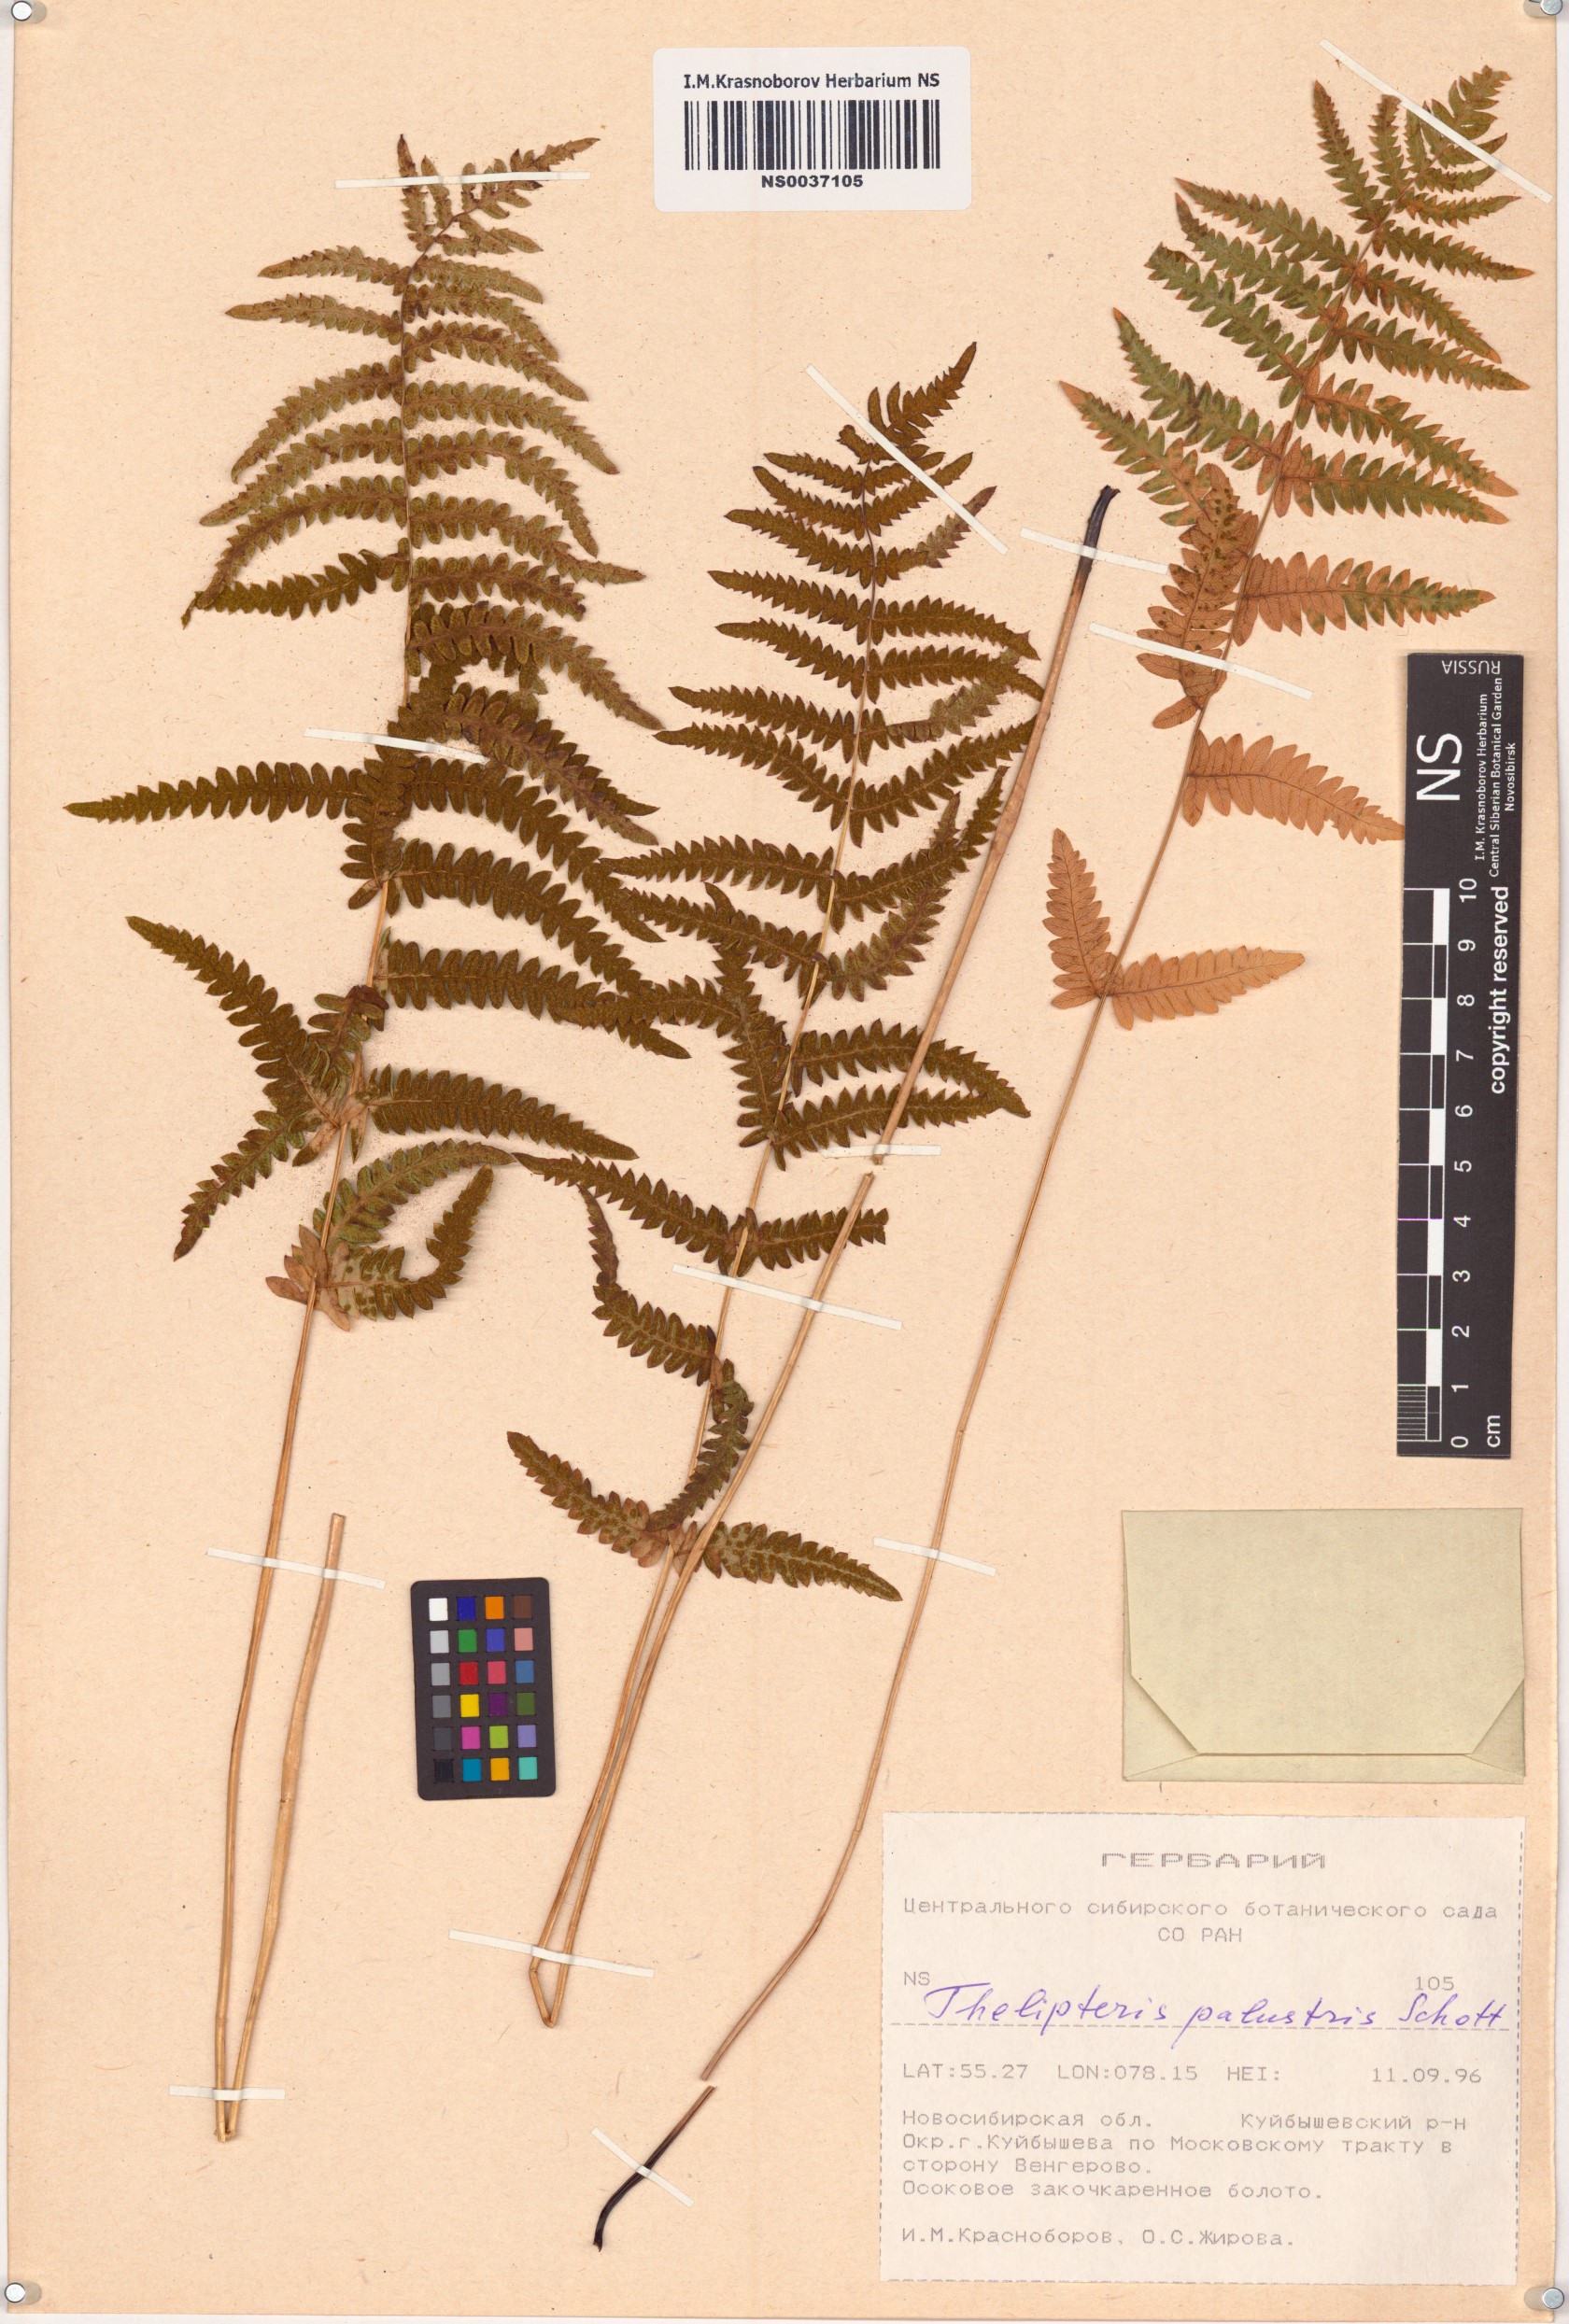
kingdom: Plantae
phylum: Tracheophyta
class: Polypodiopsida
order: Polypodiales
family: Thelypteridaceae
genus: Thelypteris
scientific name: Thelypteris palustris
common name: Marsh fern
